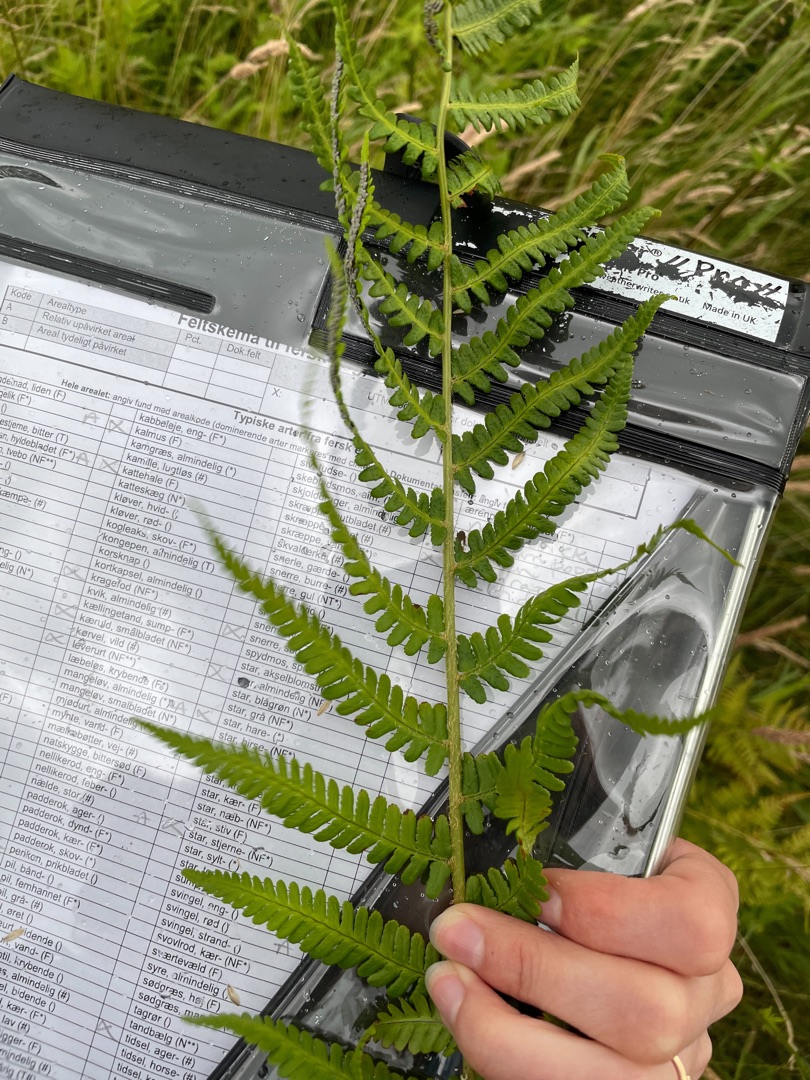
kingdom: Plantae
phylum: Tracheophyta
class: Polypodiopsida
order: Polypodiales
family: Dryopteridaceae
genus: Dryopteris
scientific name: Dryopteris filix-mas
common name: Almindelig mangeløv
